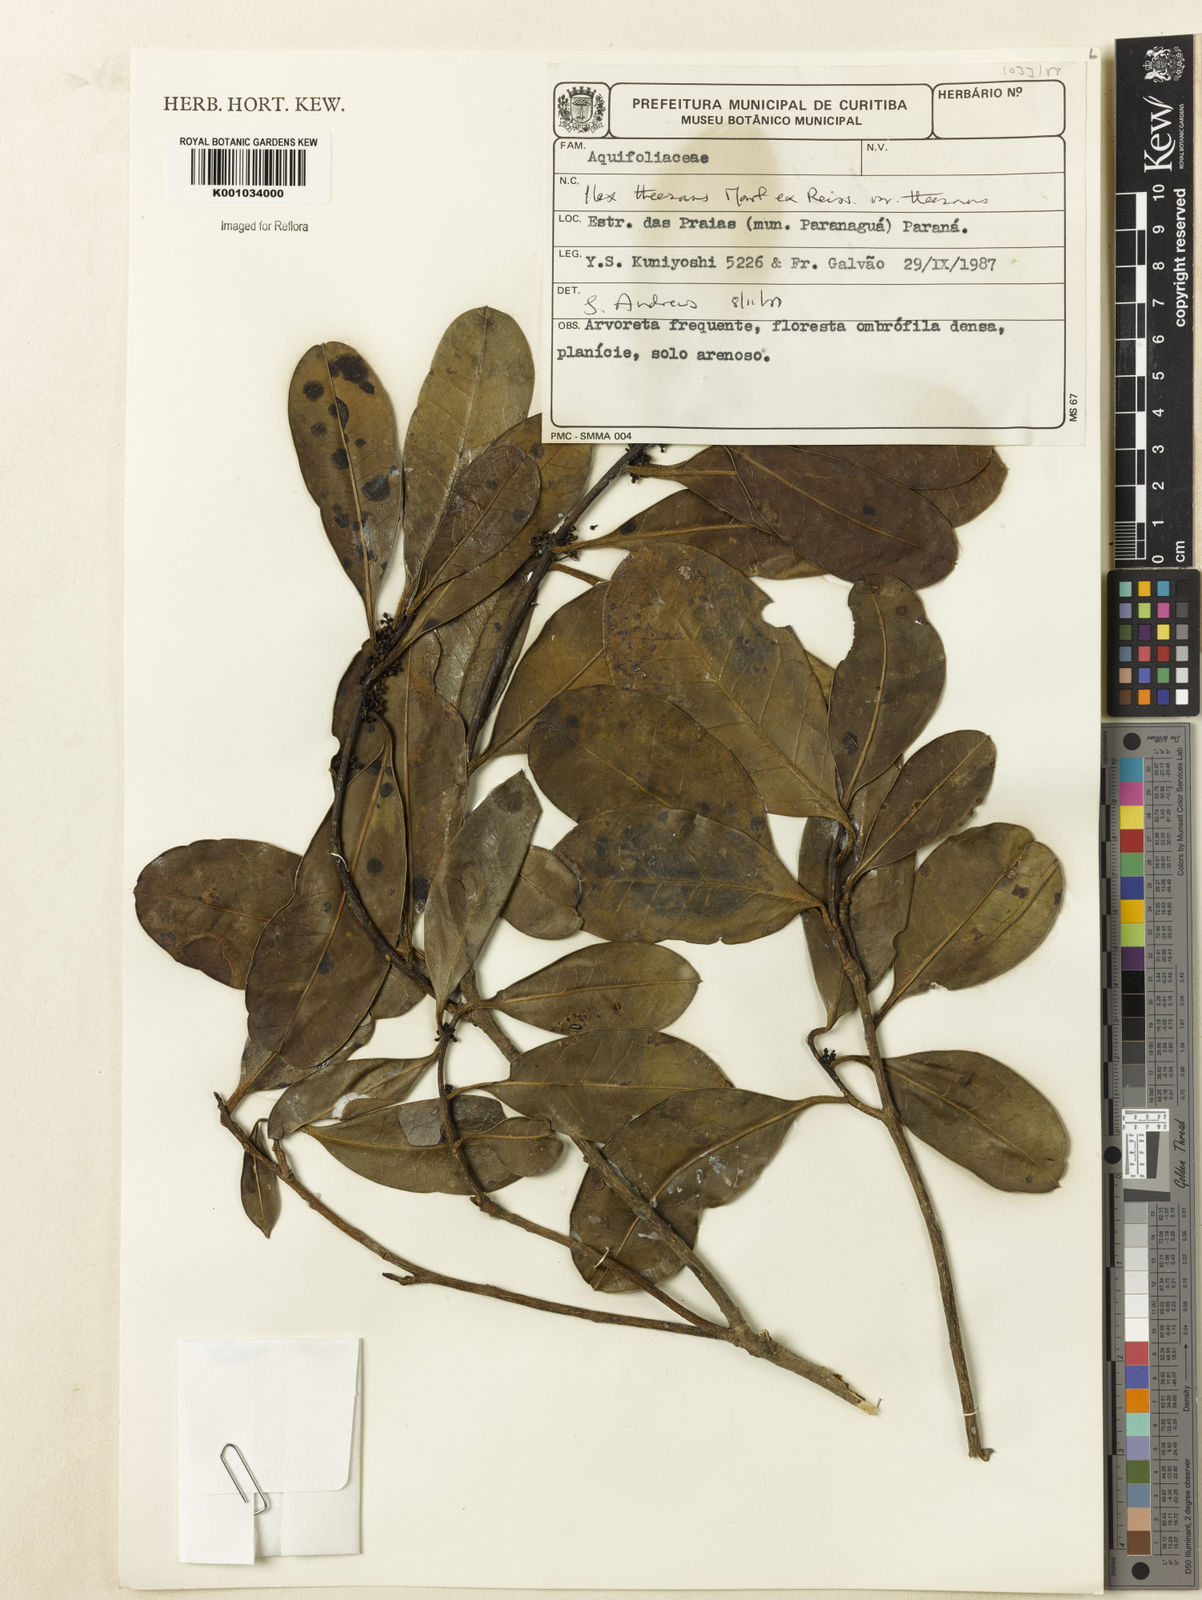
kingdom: Plantae
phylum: Tracheophyta
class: Magnoliopsida
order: Aquifoliales
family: Aquifoliaceae
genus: Ilex
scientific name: Ilex
